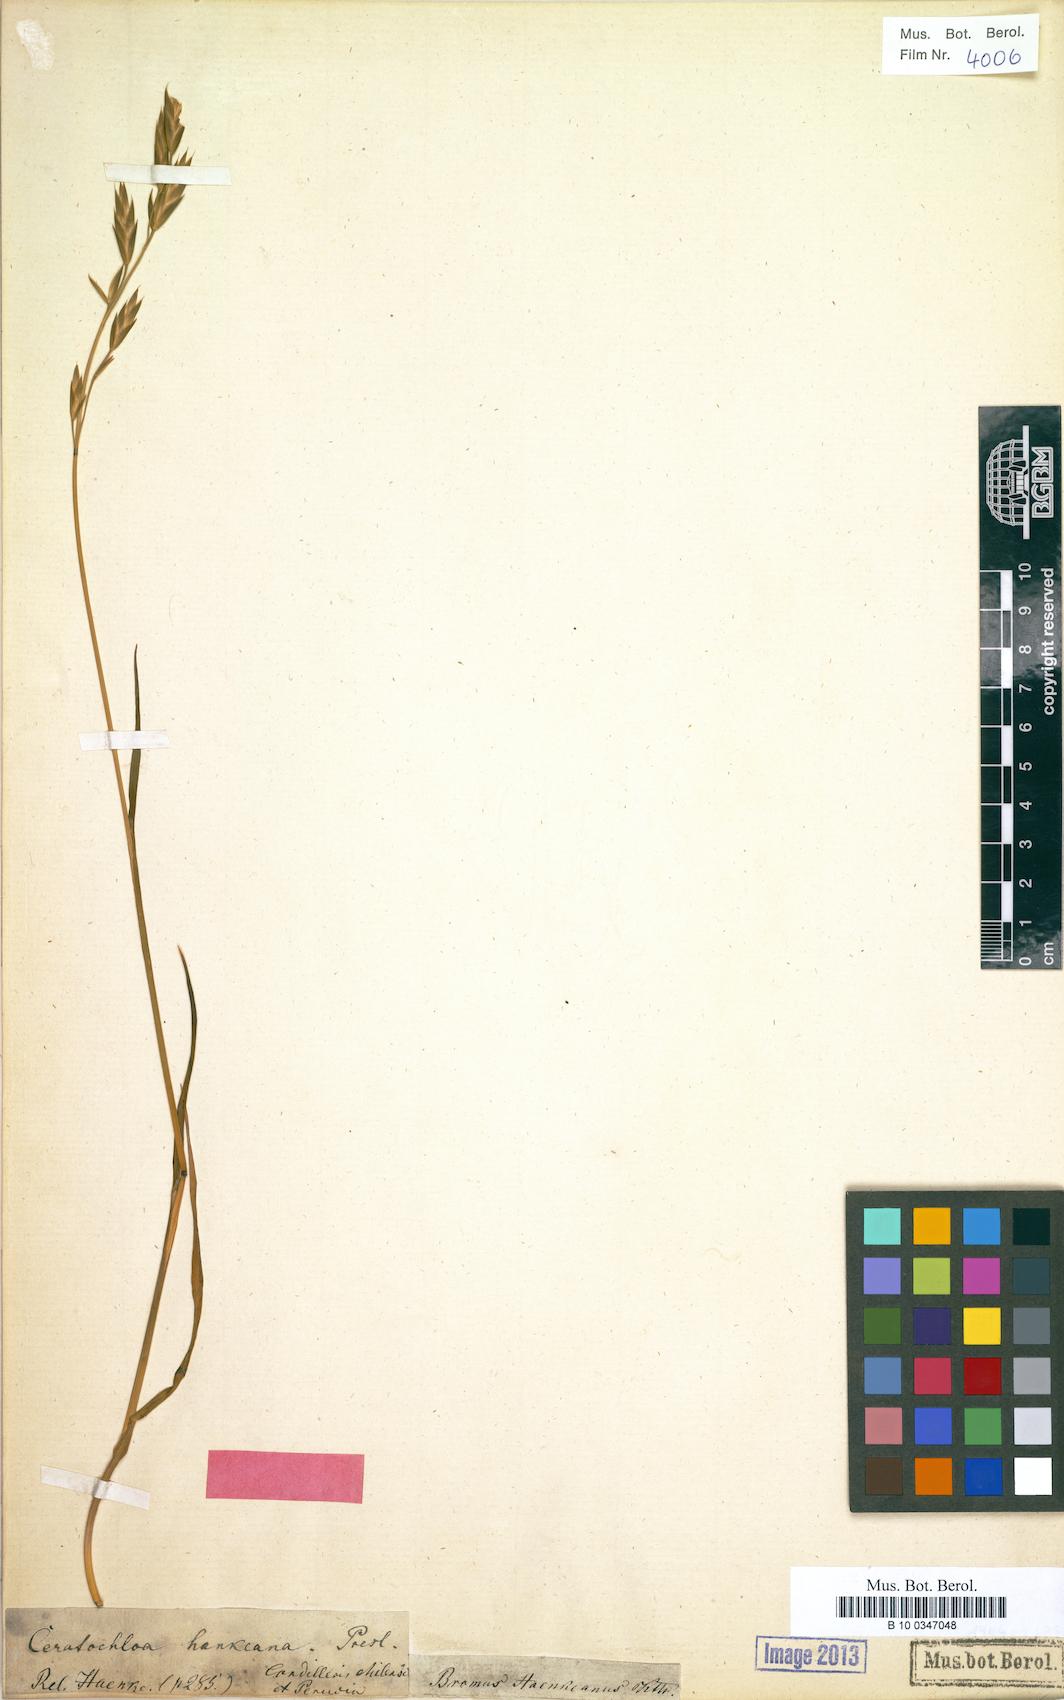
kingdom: Plantae
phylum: Tracheophyta
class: Liliopsida
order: Poales
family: Poaceae
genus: Bromus
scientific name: Bromus catharticus
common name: Rescuegrass
